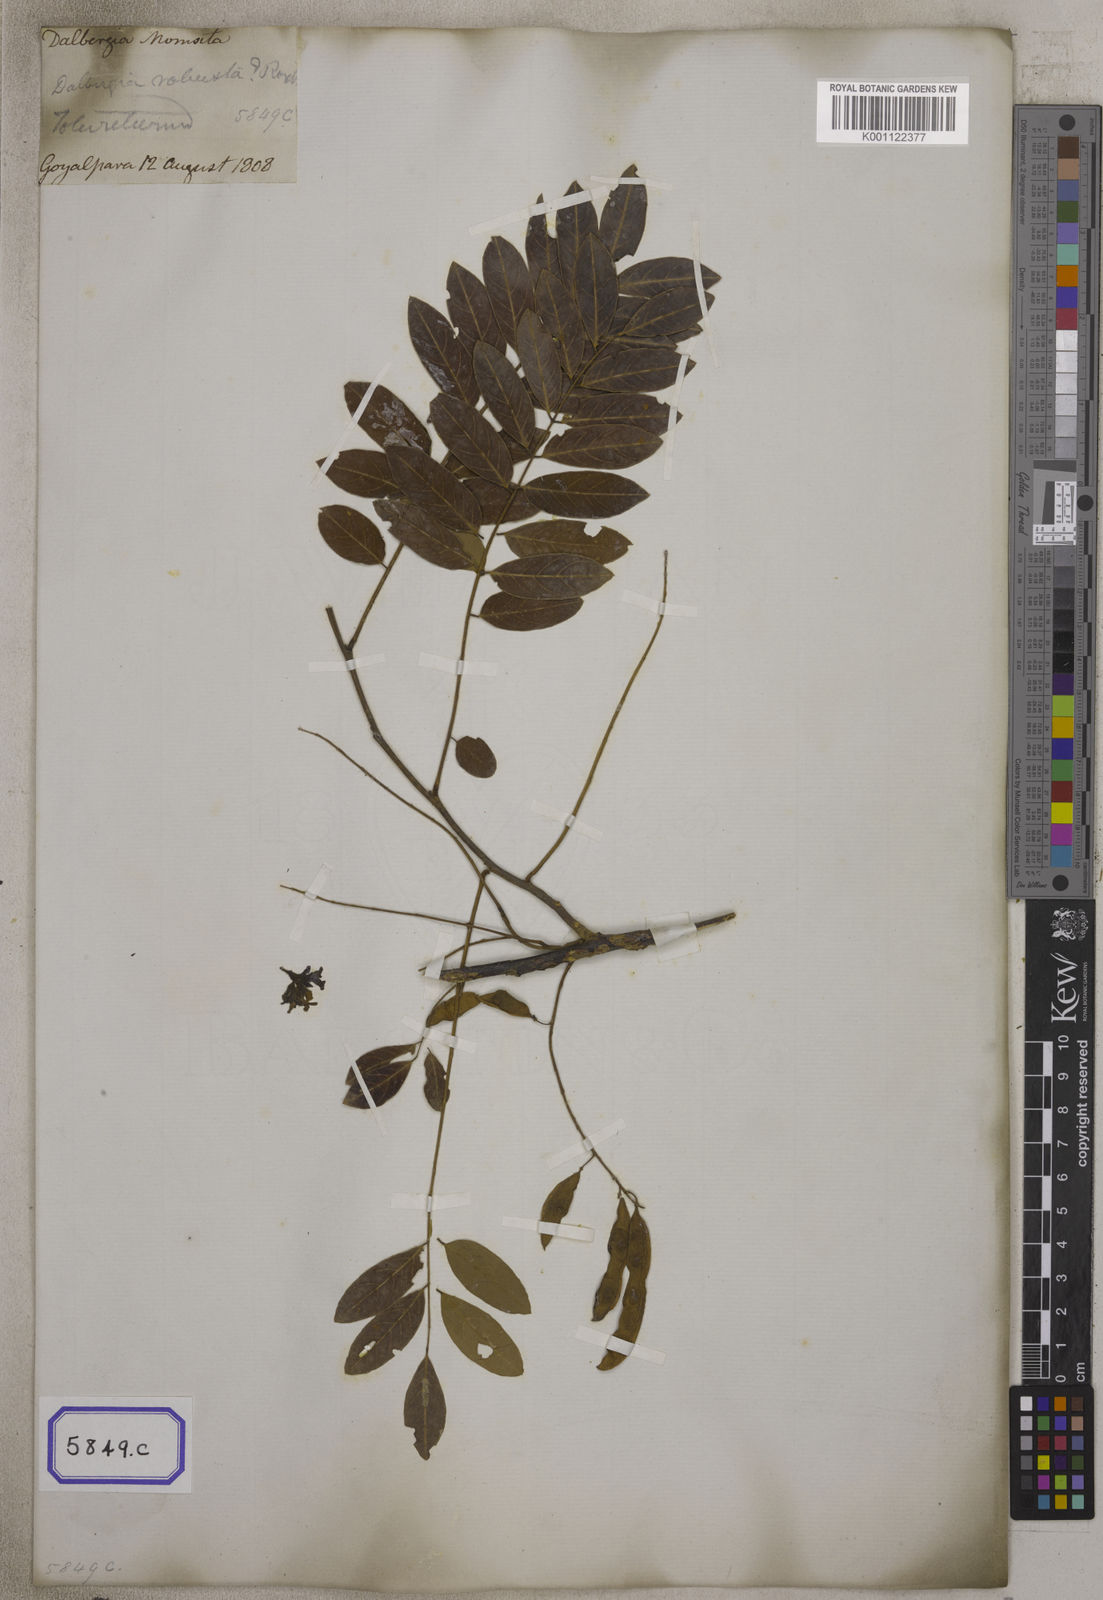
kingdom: Plantae
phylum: Tracheophyta
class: Magnoliopsida
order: Fabales
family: Fabaceae
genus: Dalbergia
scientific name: Dalbergia
